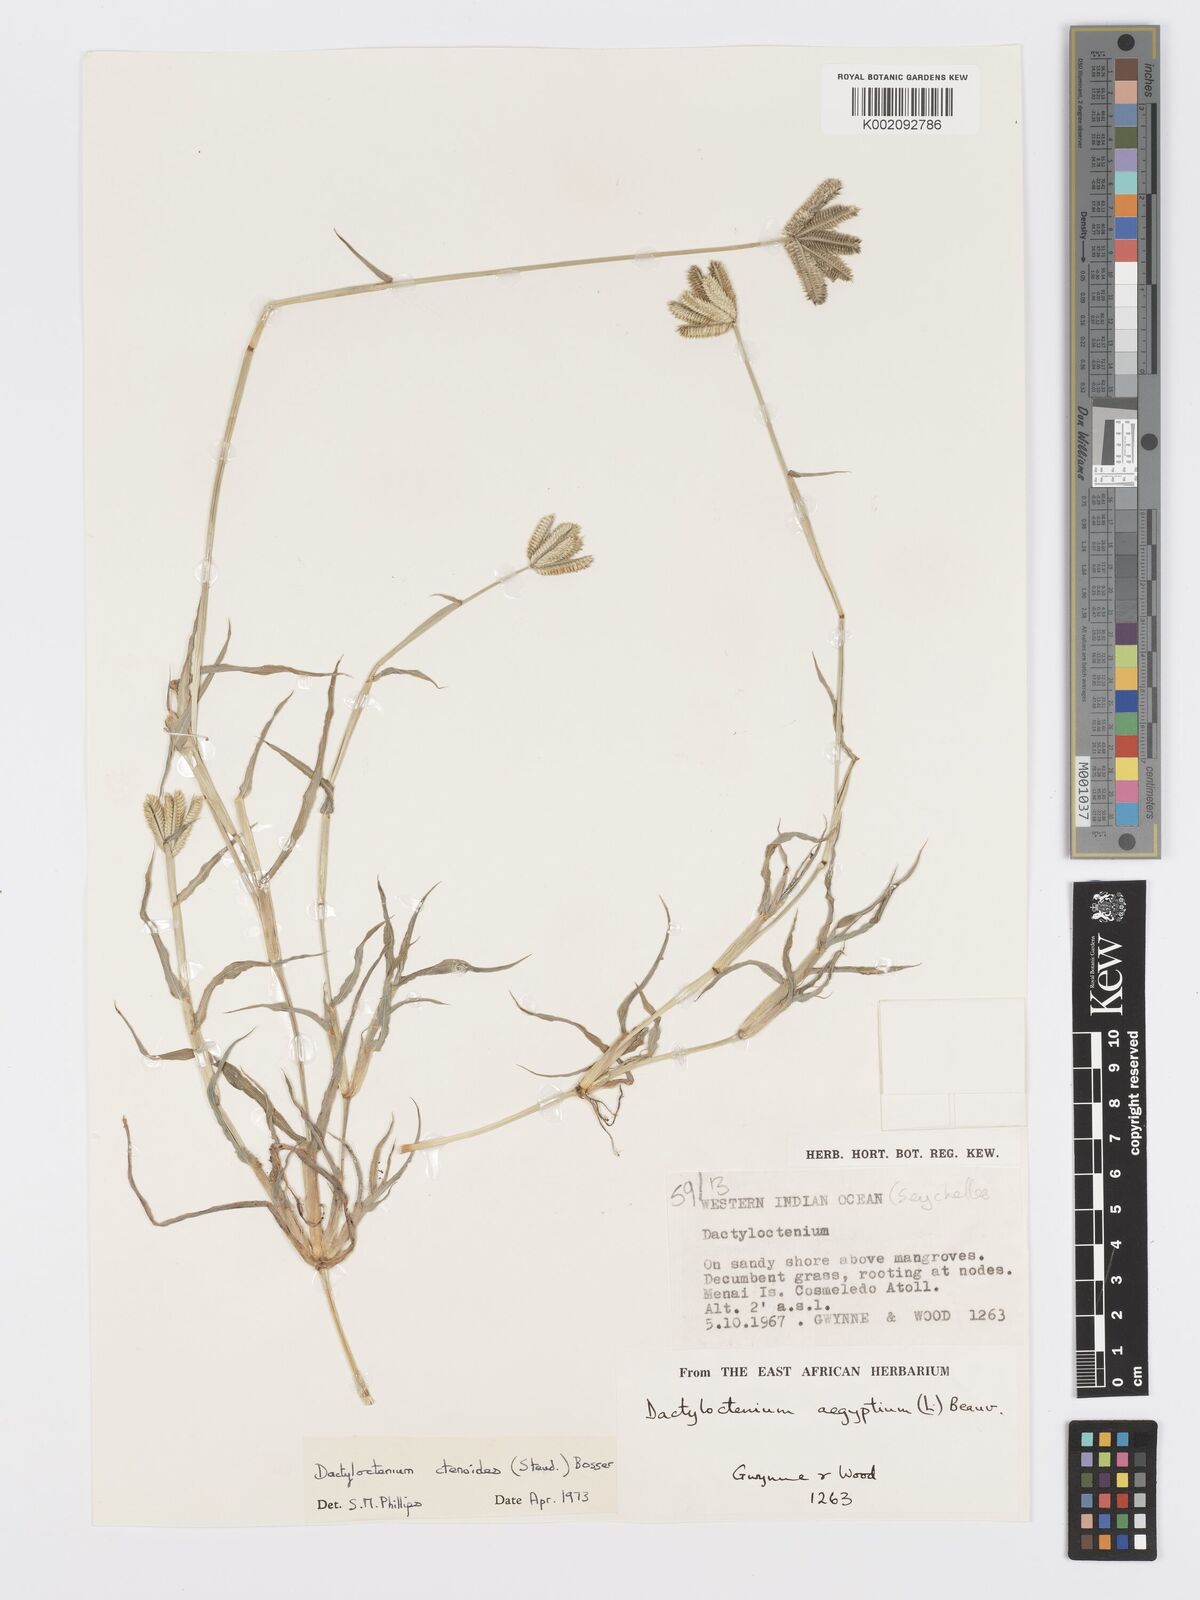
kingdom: Plantae
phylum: Tracheophyta
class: Liliopsida
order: Poales
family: Poaceae
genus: Dactyloctenium
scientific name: Dactyloctenium ctenoides
